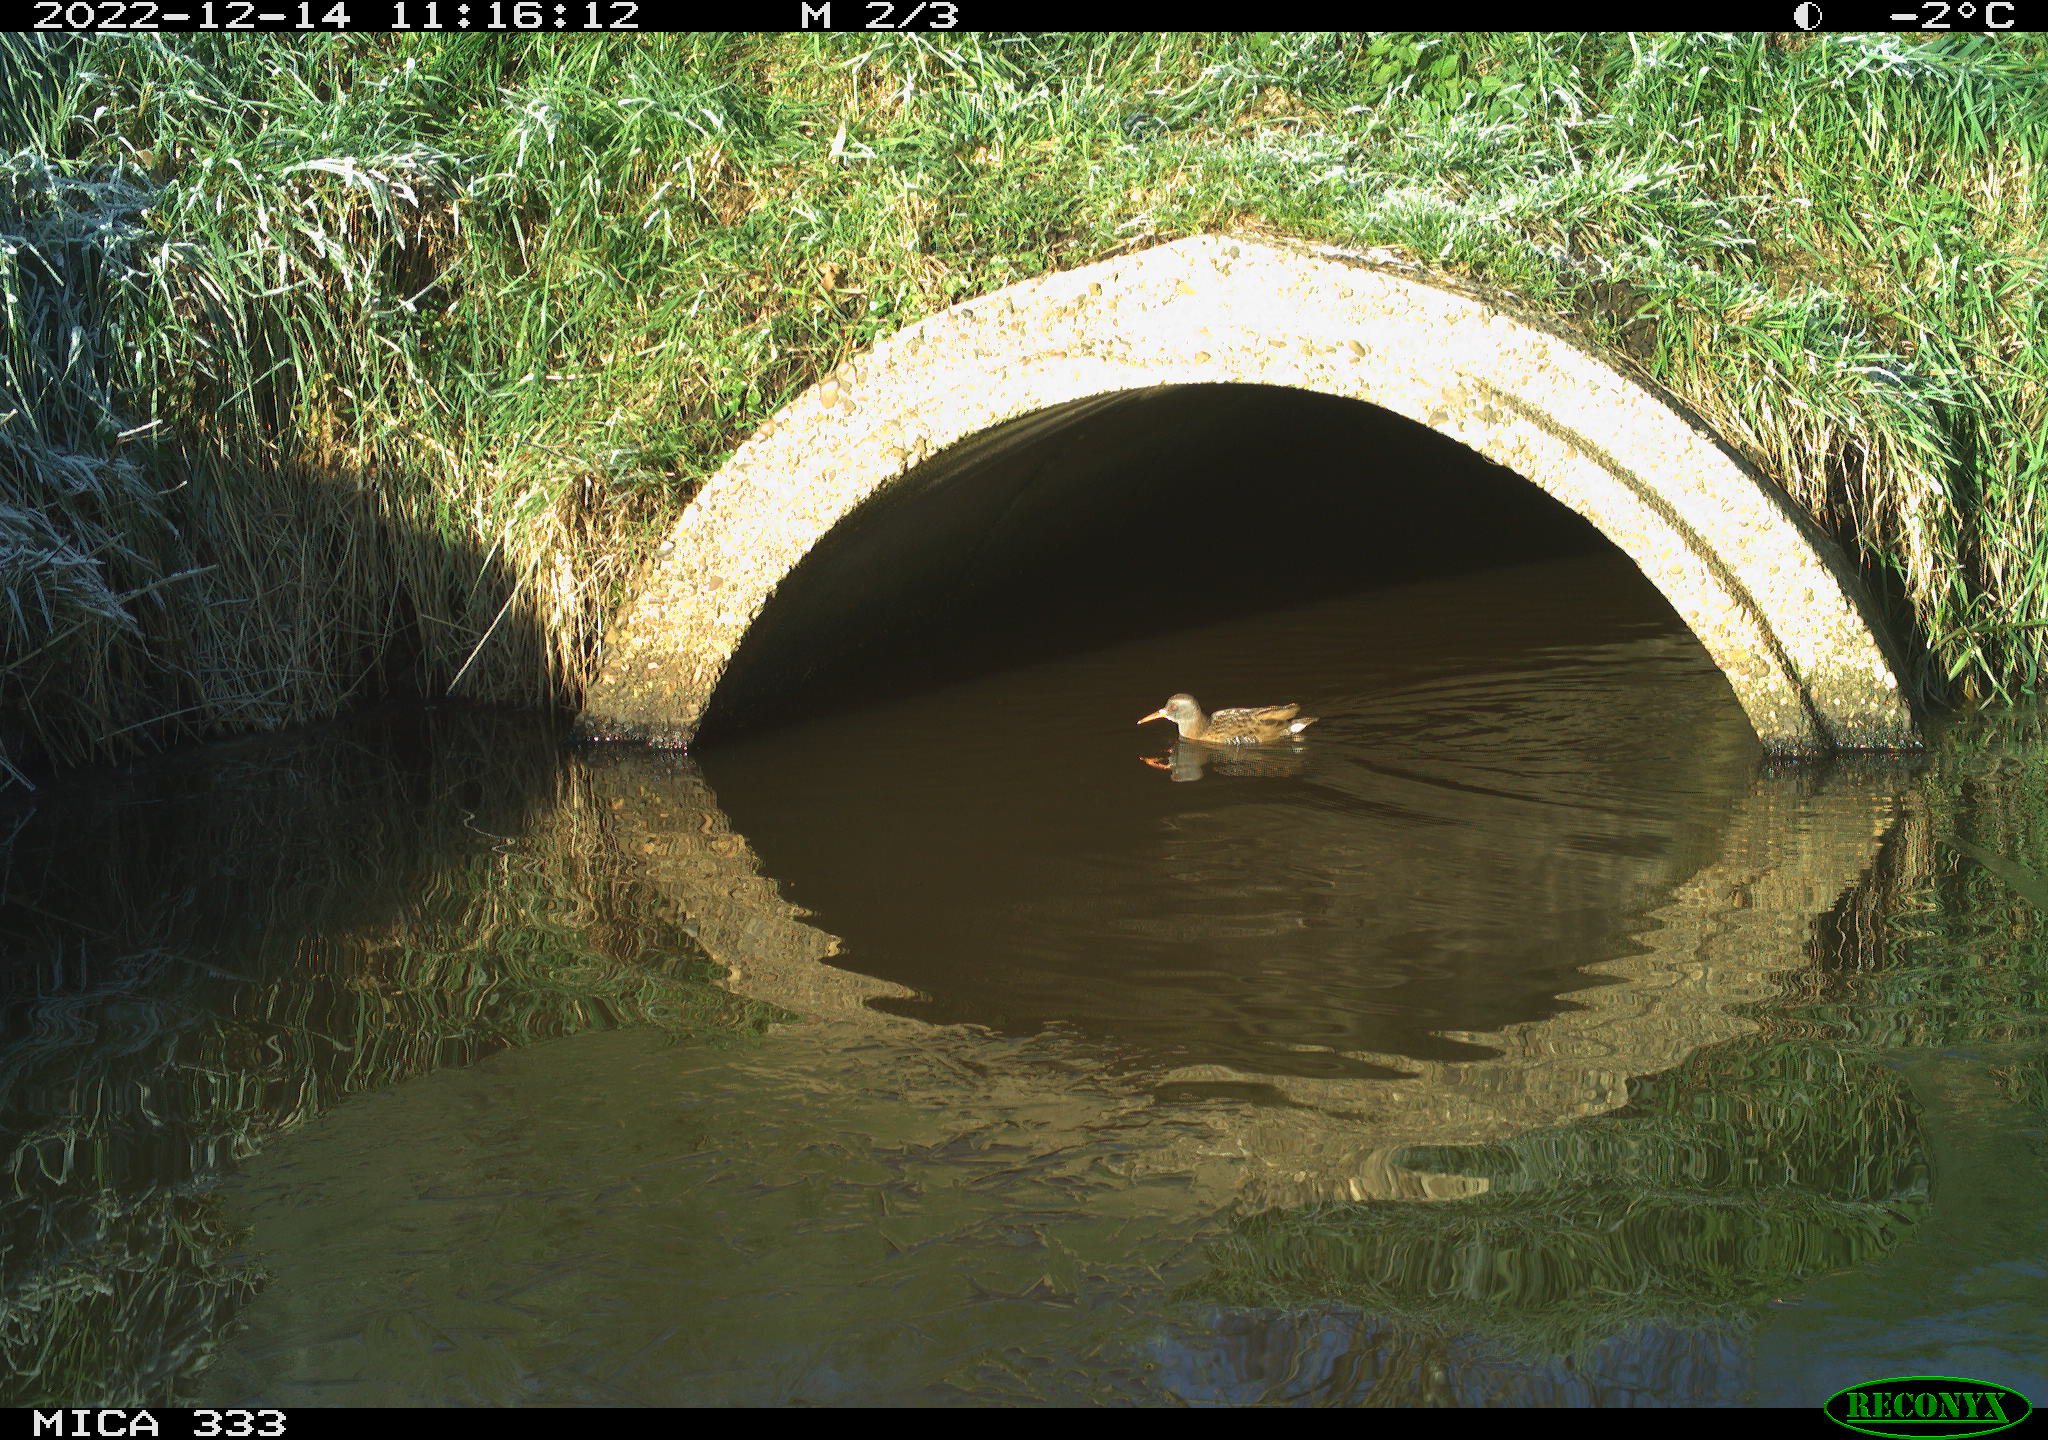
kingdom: Animalia
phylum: Chordata
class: Aves
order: Anseriformes
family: Anatidae
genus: Anas
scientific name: Anas
